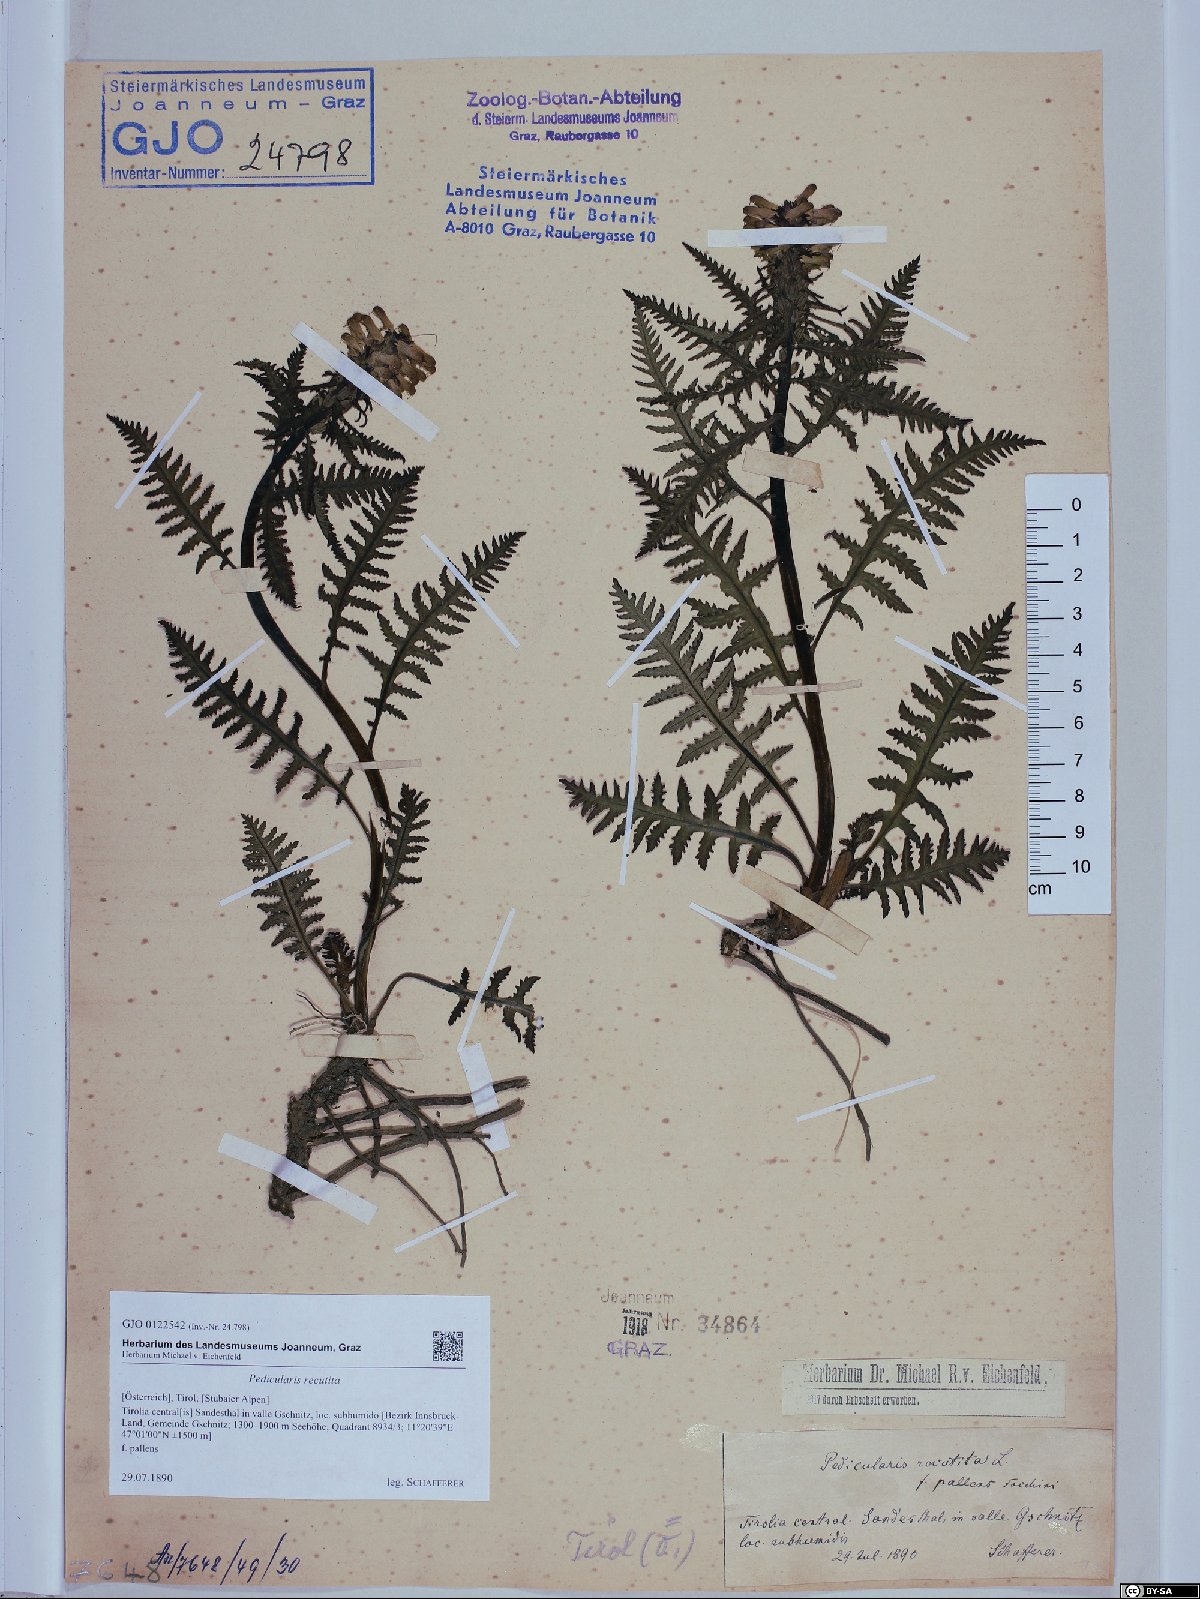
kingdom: Plantae
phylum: Tracheophyta
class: Magnoliopsida
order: Lamiales
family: Orobanchaceae
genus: Pedicularis
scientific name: Pedicularis recutita
